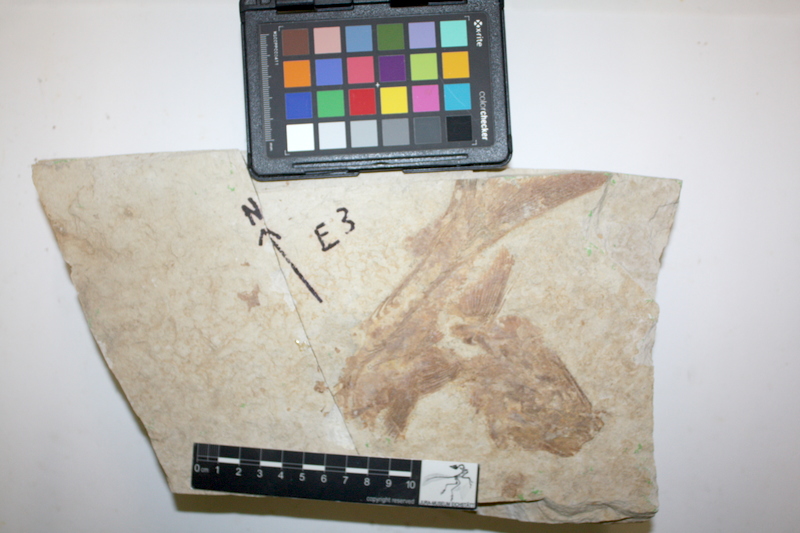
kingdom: Animalia
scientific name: Animalia
